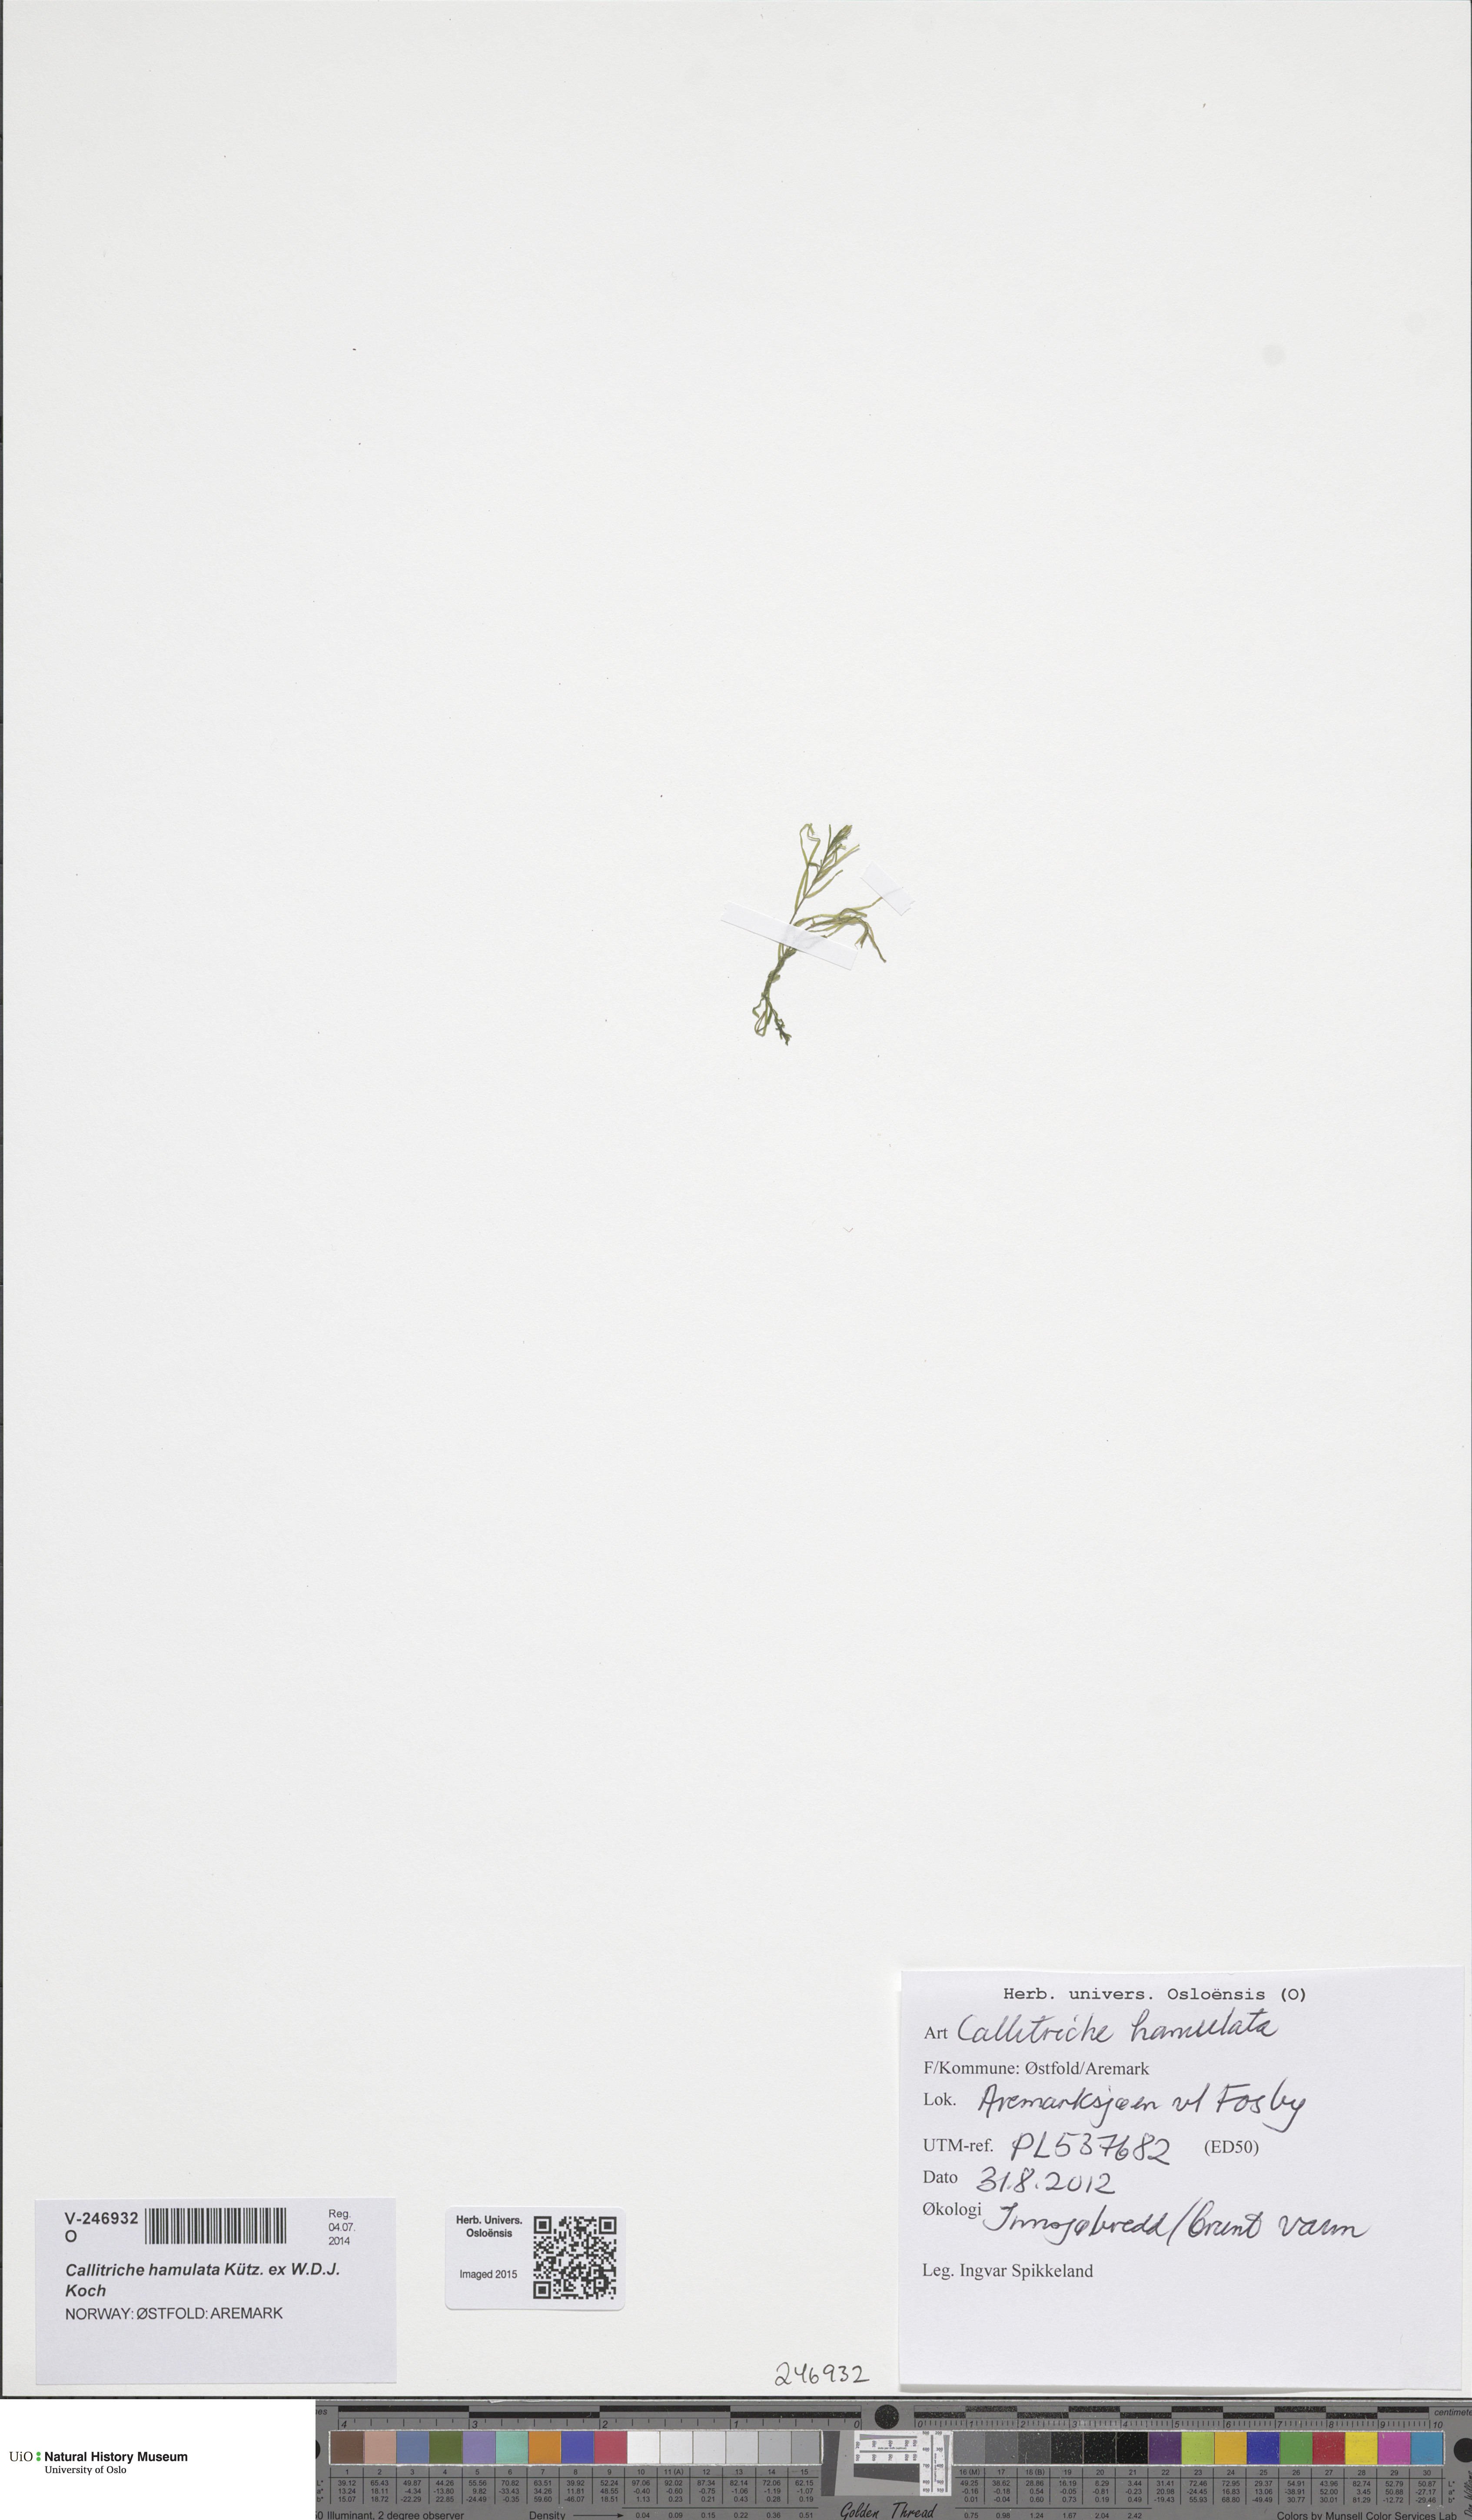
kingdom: Plantae
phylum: Tracheophyta
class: Magnoliopsida
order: Lamiales
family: Plantaginaceae
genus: Callitriche
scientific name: Callitriche hamulata
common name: Intermediate water-starwort
